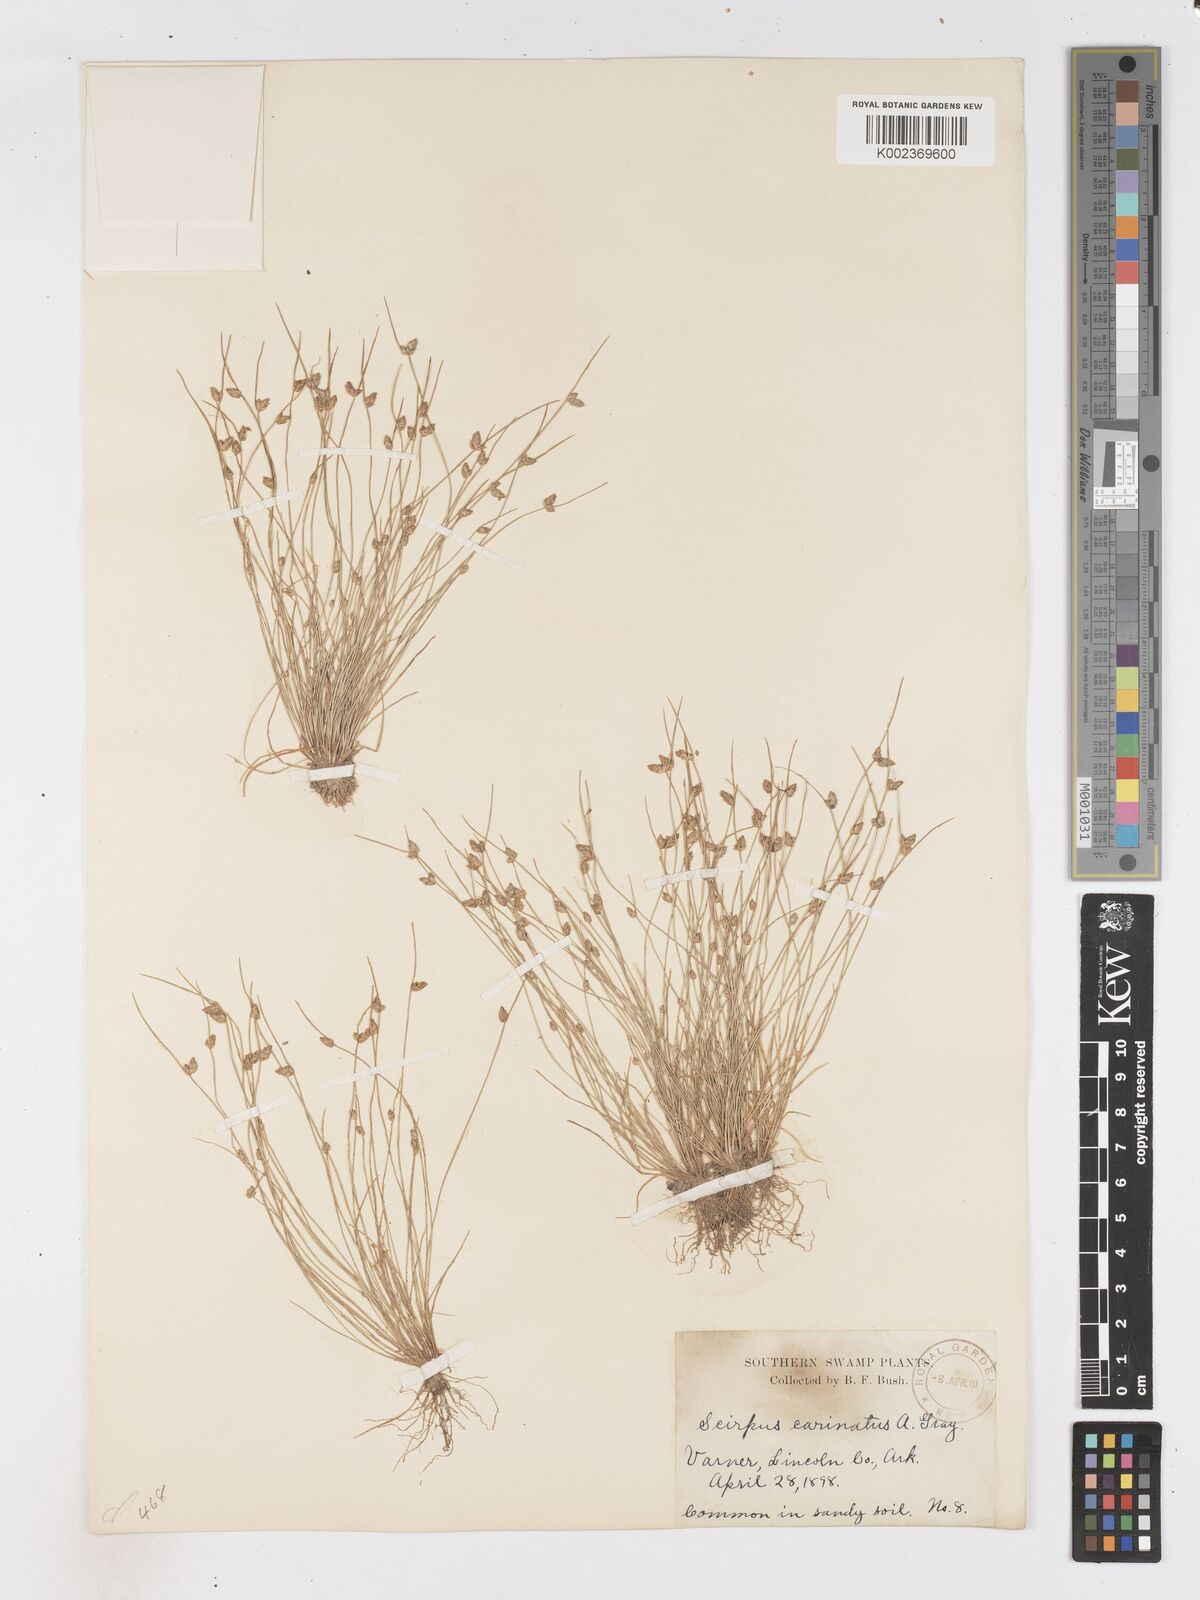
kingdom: Plantae
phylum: Tracheophyta
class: Liliopsida
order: Poales
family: Cyperaceae
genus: Isolepis
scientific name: Isolepis carinata
